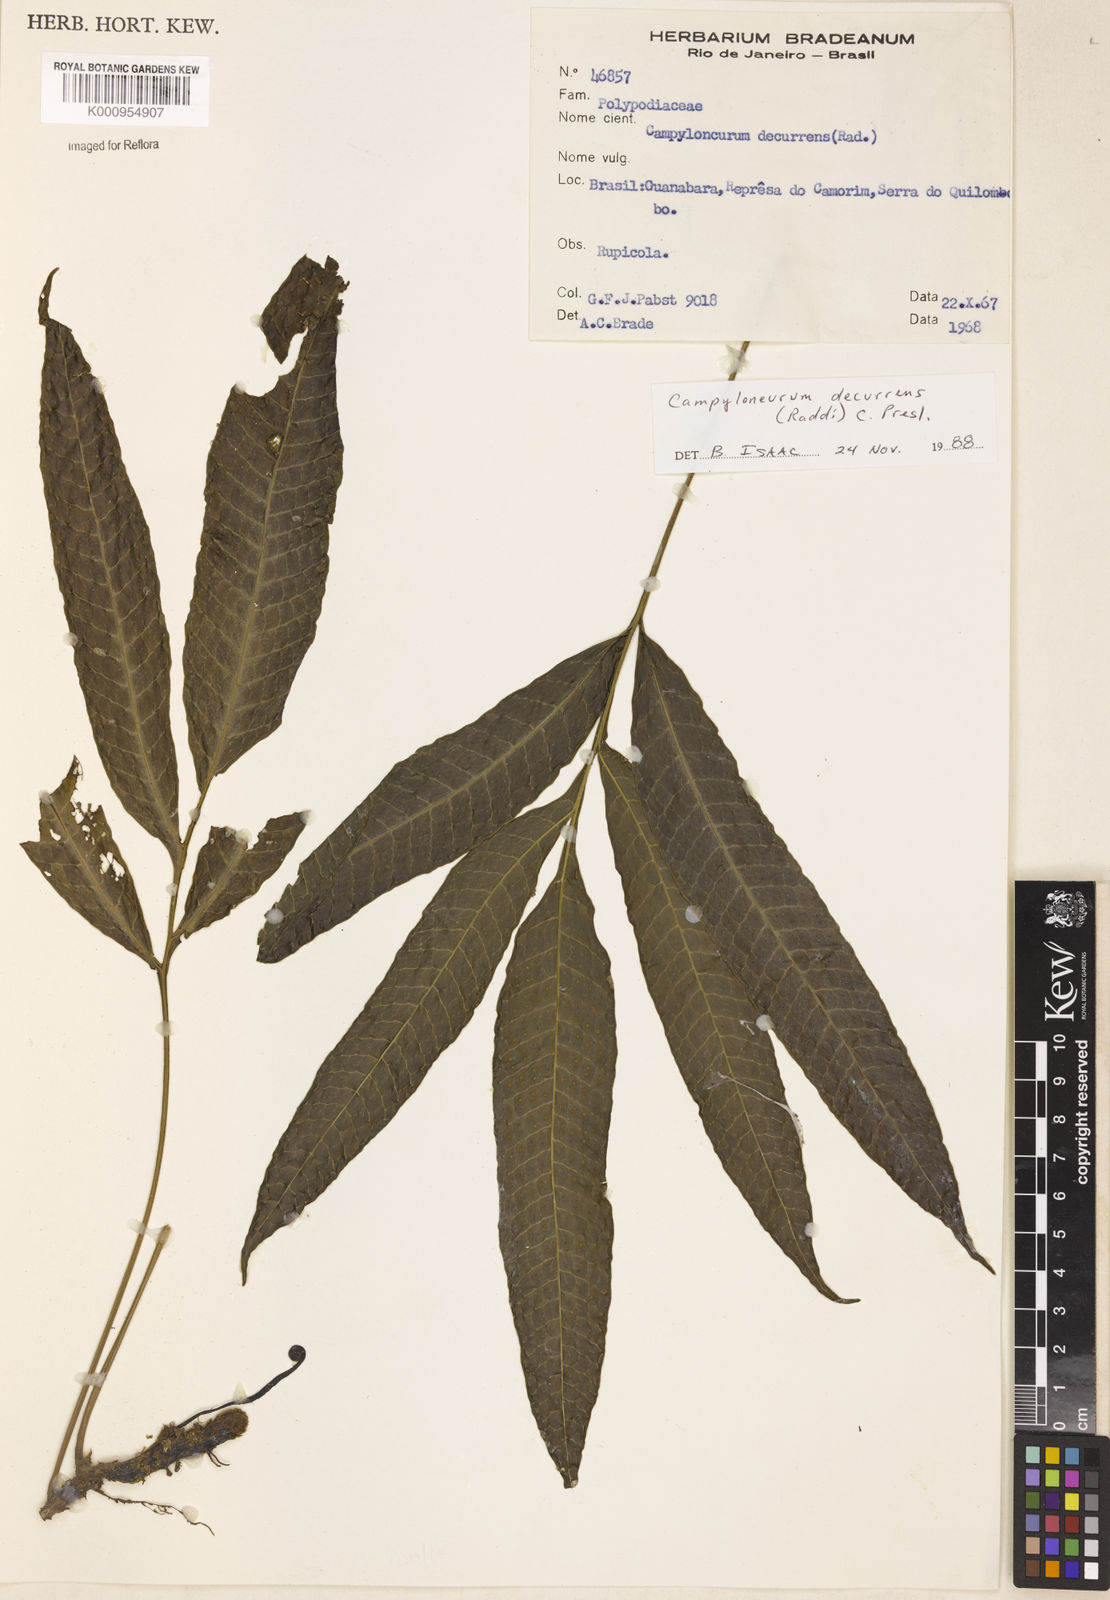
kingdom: Plantae
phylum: Tracheophyta
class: Polypodiopsida
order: Polypodiales
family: Polypodiaceae
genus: Campyloneurum
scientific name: Campyloneurum decurrens
